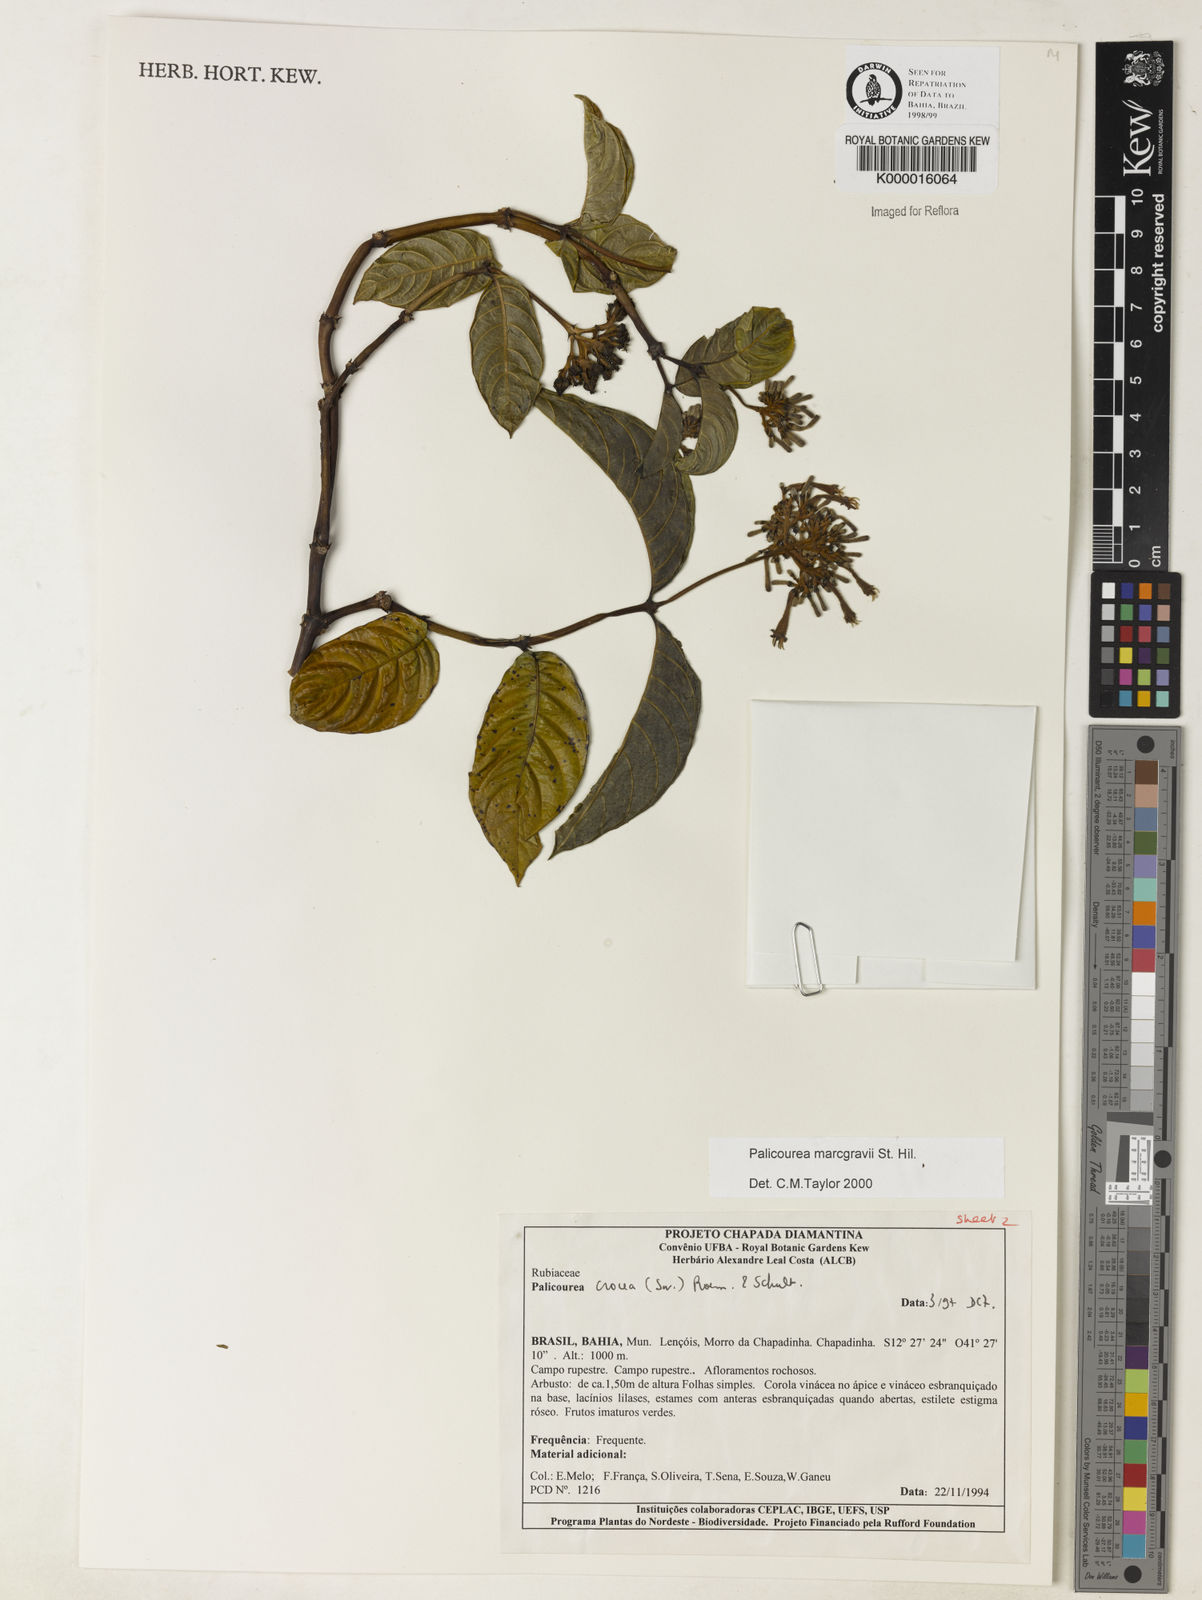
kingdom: Plantae
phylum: Tracheophyta
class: Magnoliopsida
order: Gentianales
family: Rubiaceae
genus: Palicourea
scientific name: Palicourea marcgravii
